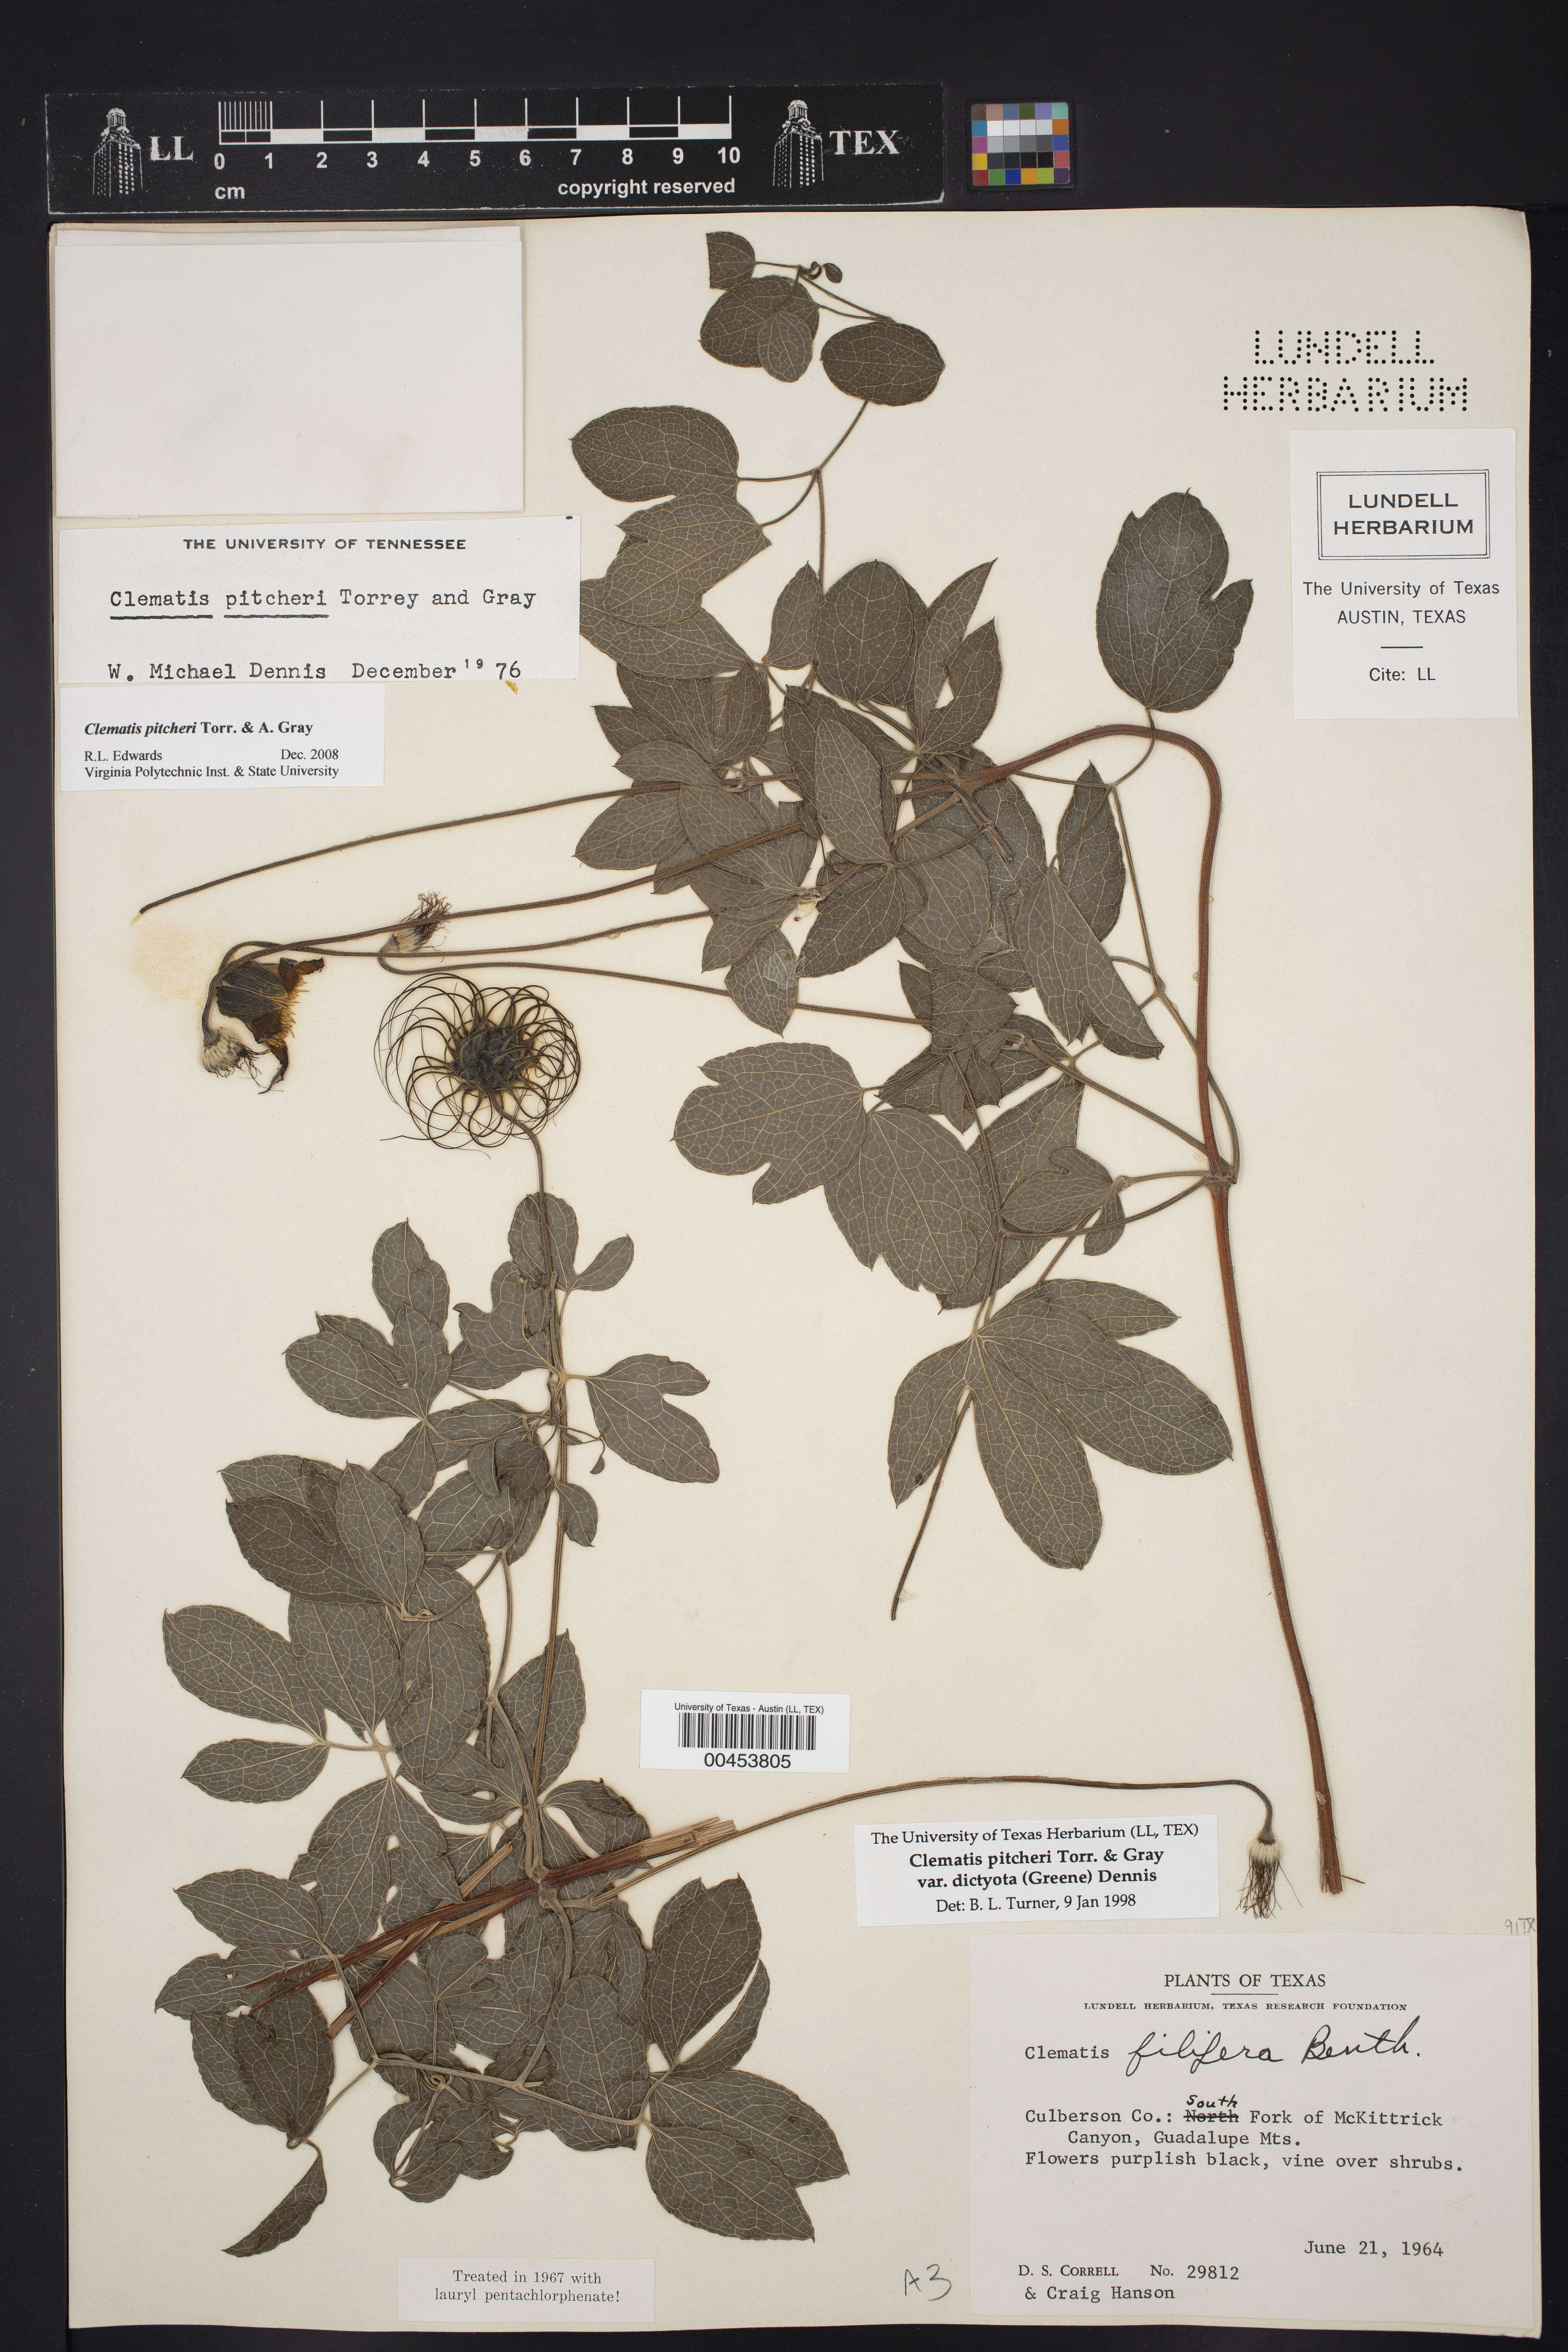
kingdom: Plantae
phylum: Tracheophyta
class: Magnoliopsida
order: Ranunculales
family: Ranunculaceae
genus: Clematis
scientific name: Clematis pitcheri
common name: Bellflower clematis
